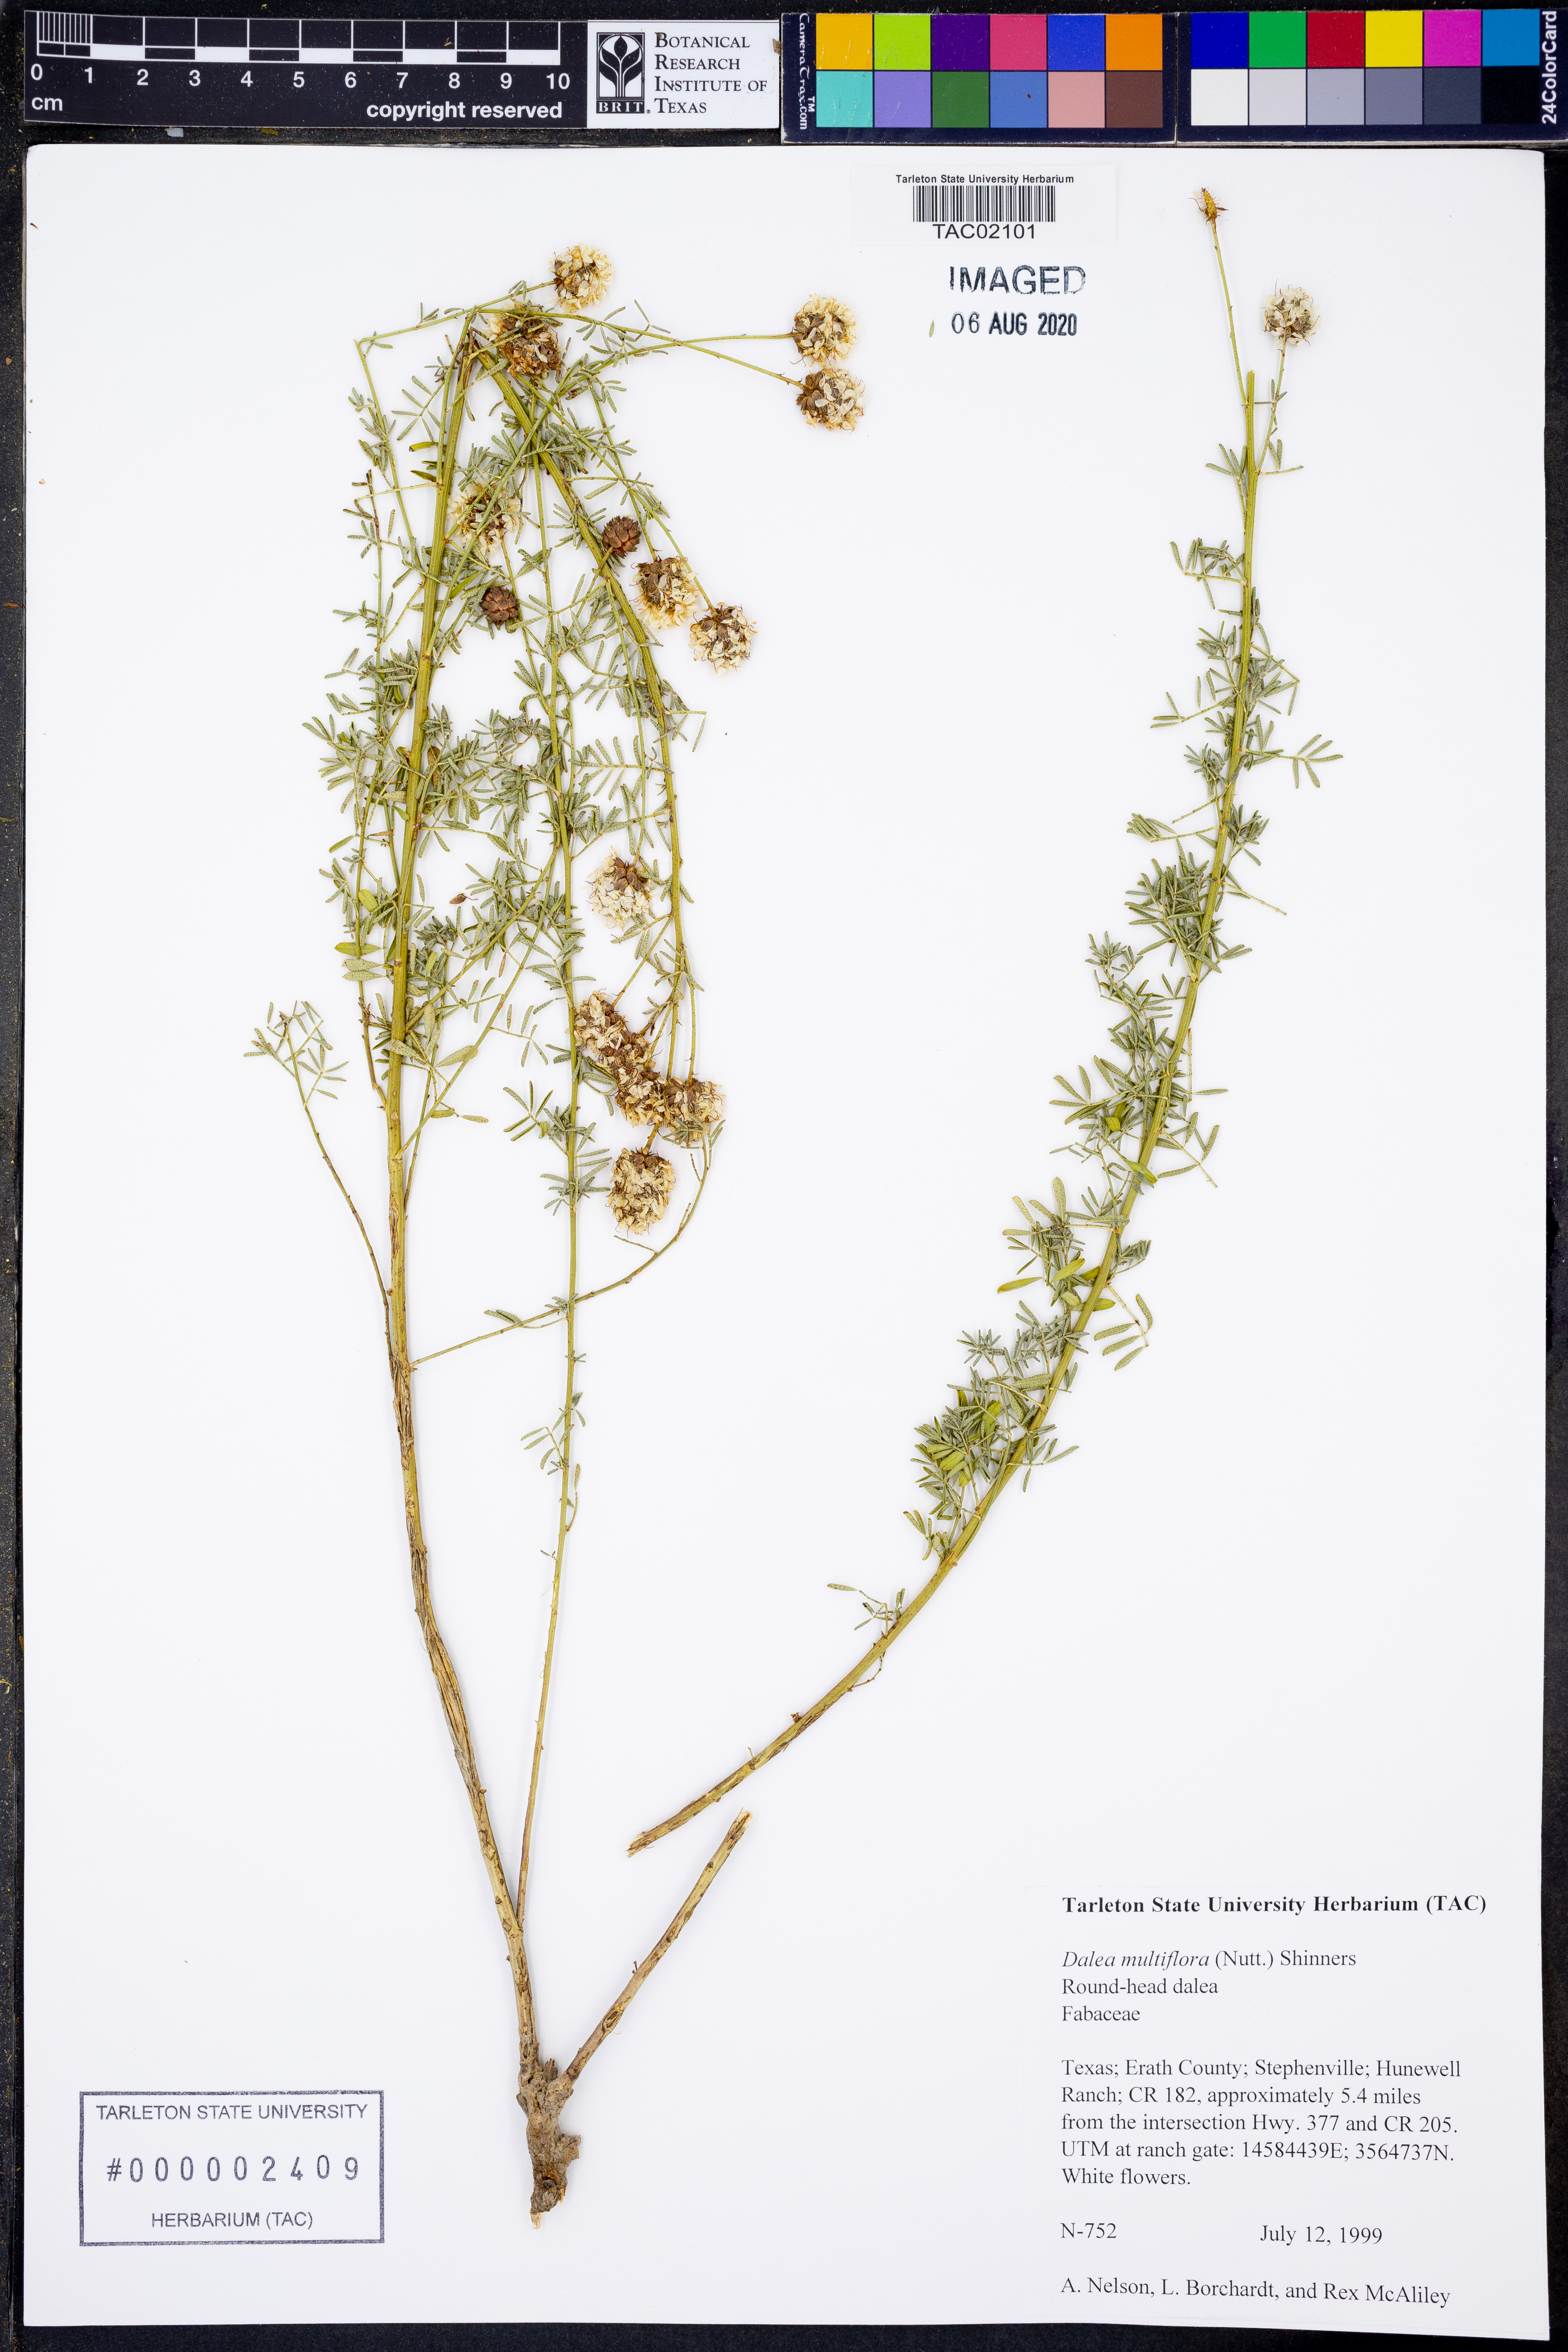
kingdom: Plantae
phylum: Tracheophyta
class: Magnoliopsida
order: Fabales
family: Fabaceae
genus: Dalea
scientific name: Dalea multiflora
